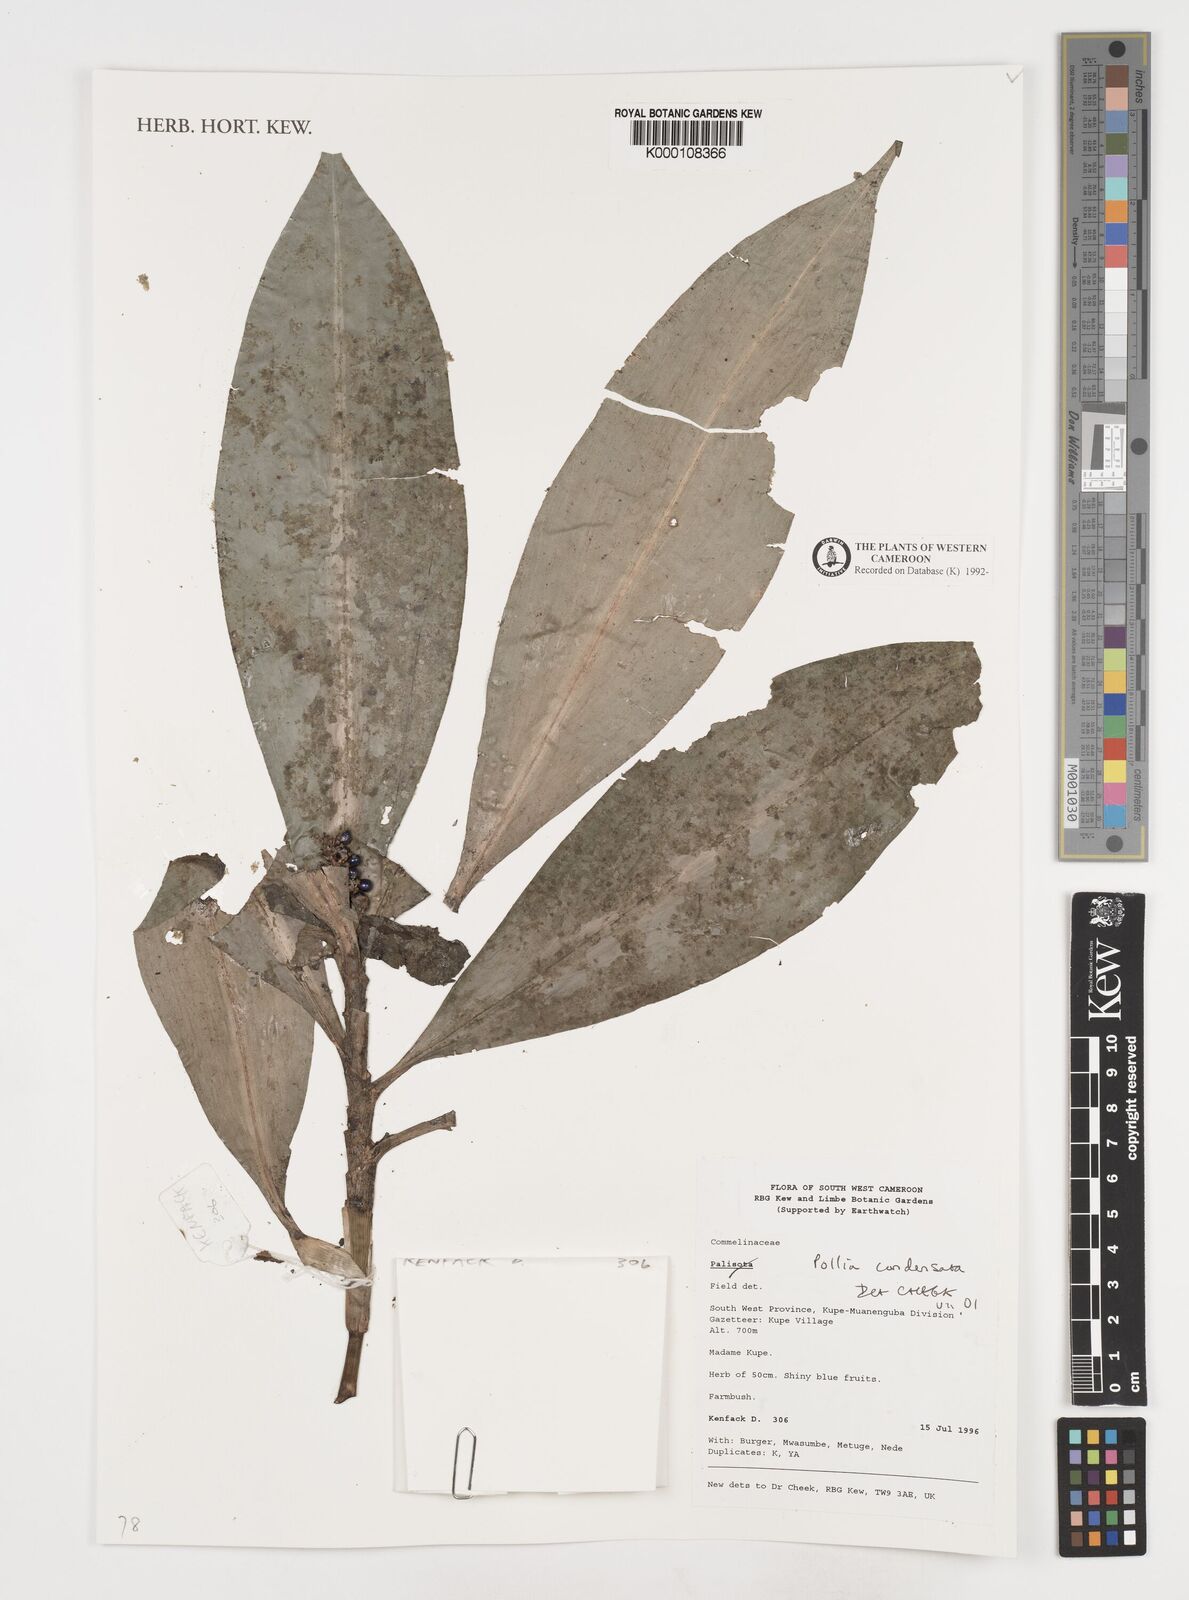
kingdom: Plantae
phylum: Tracheophyta
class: Liliopsida
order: Commelinales
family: Commelinaceae
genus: Pollia
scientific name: Pollia condensata
